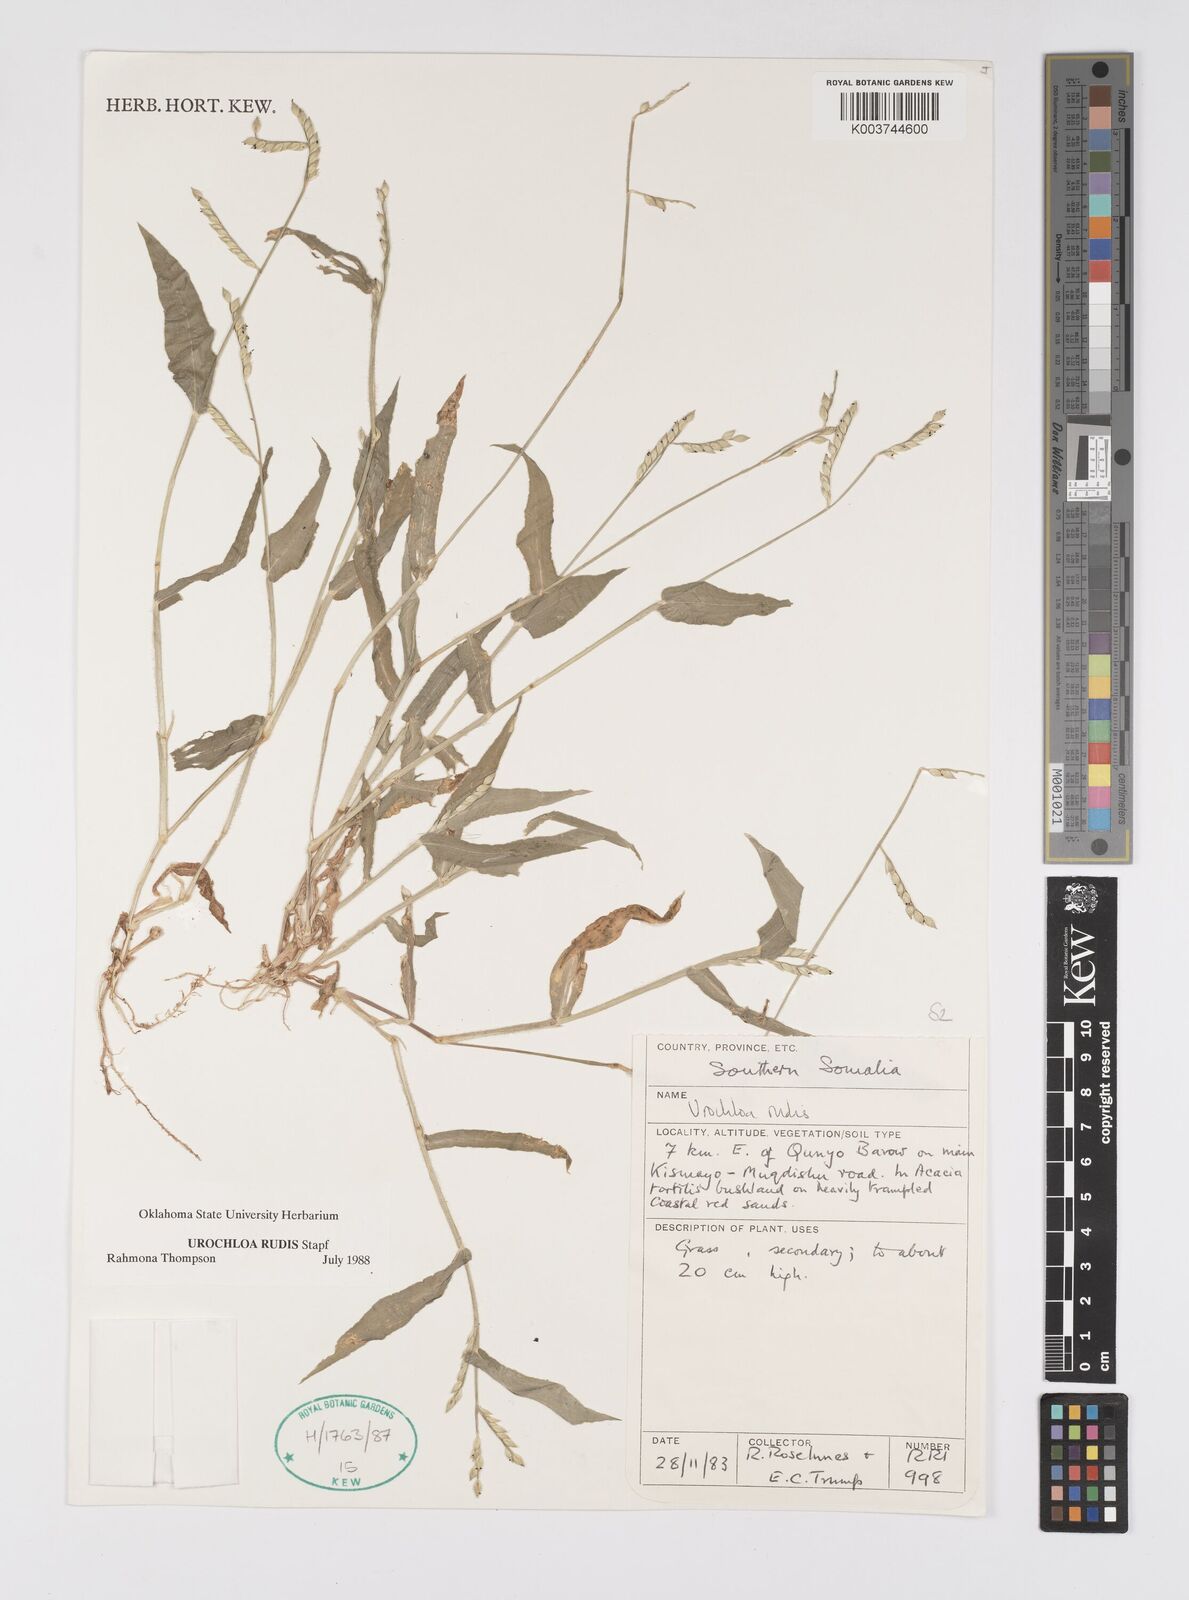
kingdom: Plantae
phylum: Tracheophyta
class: Liliopsida
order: Poales
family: Poaceae
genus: Urochloa
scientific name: Urochloa rudis
